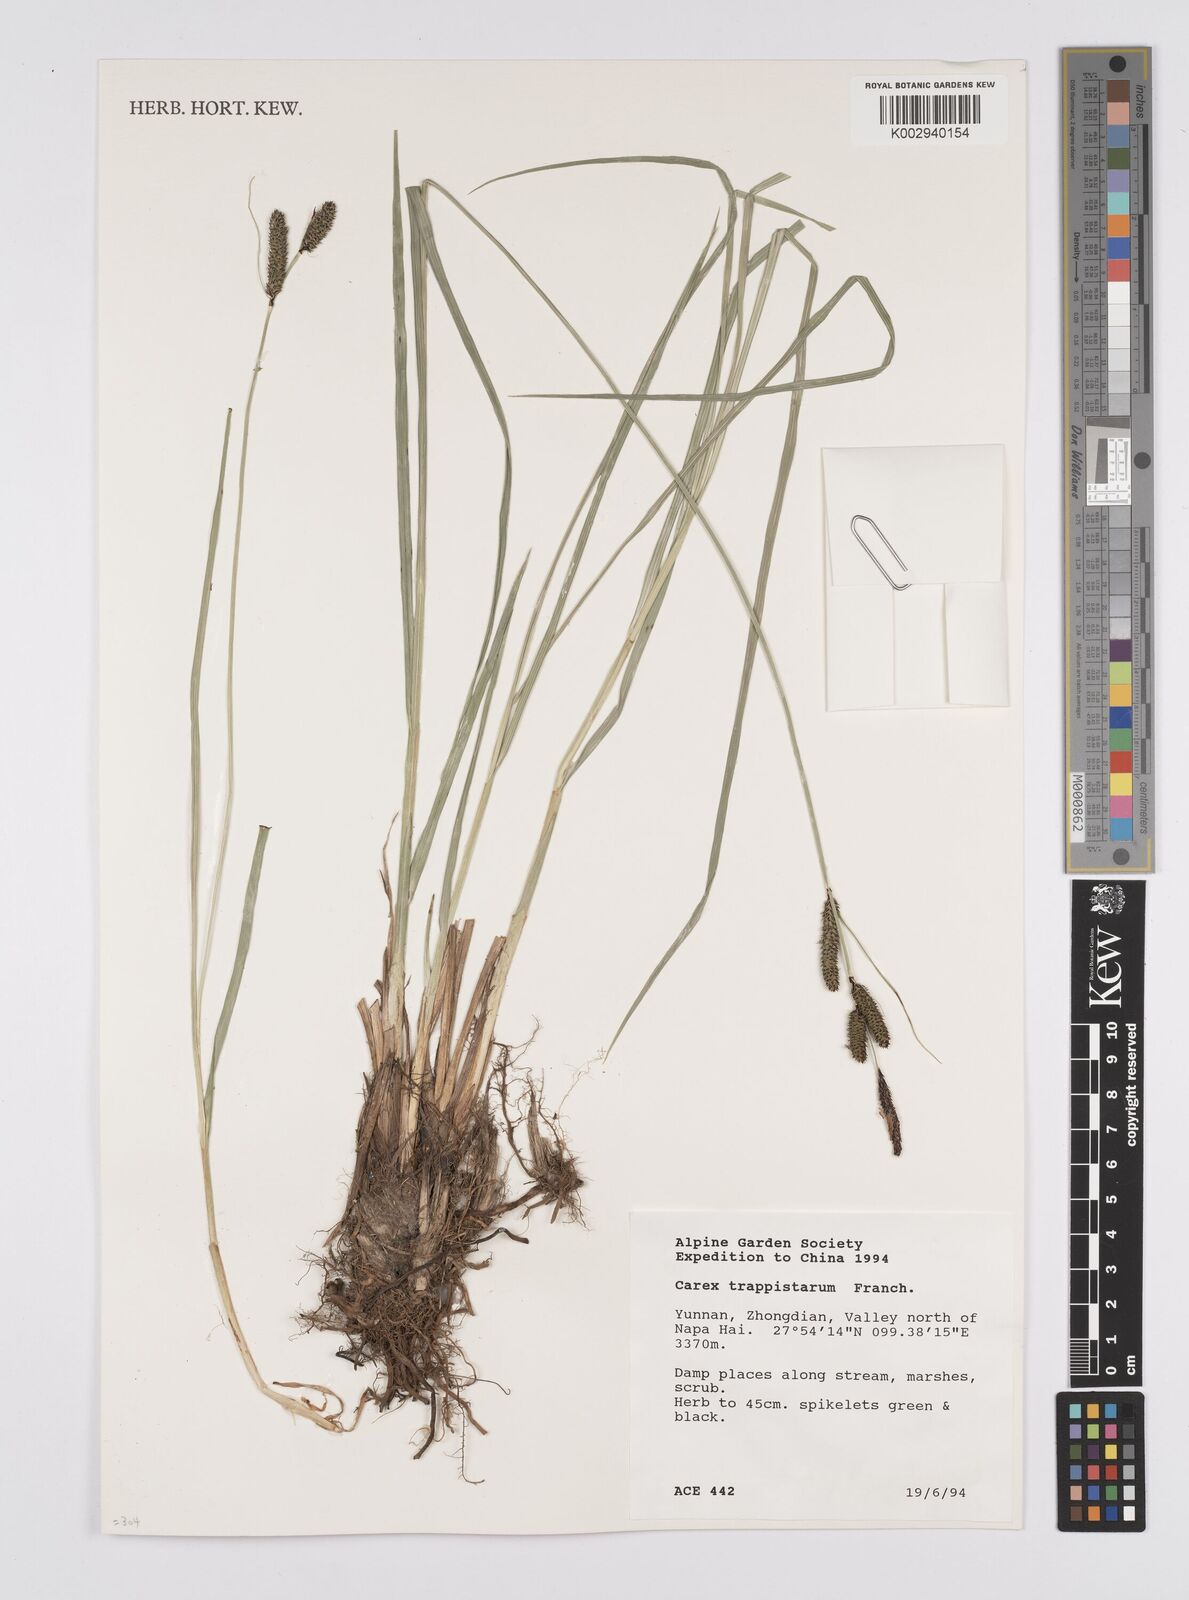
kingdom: Plantae
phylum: Tracheophyta
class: Liliopsida
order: Poales
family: Cyperaceae
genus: Carex
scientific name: Carex cruenta
